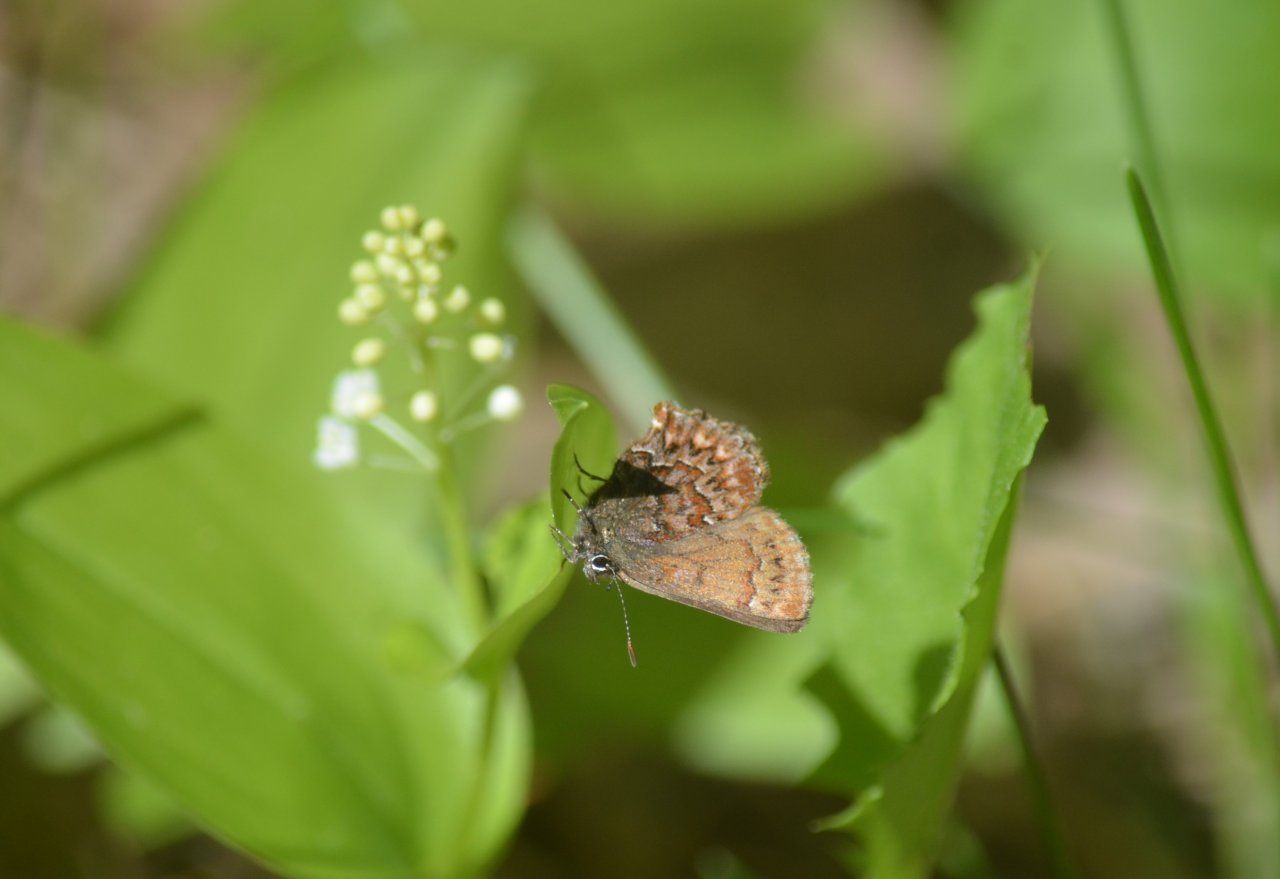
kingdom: Animalia
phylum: Arthropoda
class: Insecta
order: Lepidoptera
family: Lycaenidae
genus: Incisalia
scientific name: Incisalia eryphon
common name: Western Pine Elfin
